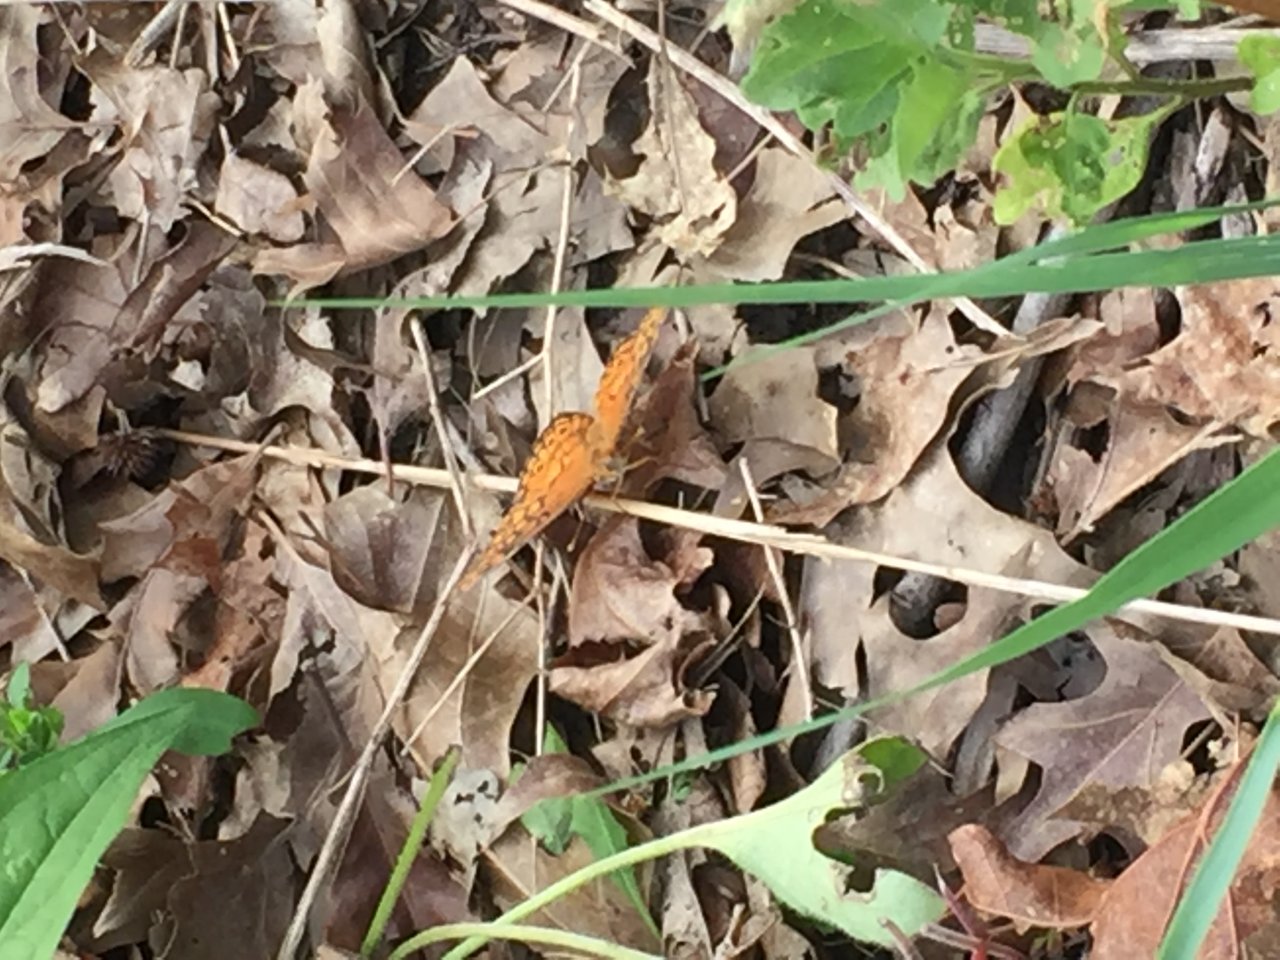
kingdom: Animalia
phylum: Arthropoda
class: Insecta
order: Lepidoptera
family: Nymphalidae
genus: Euptoieta
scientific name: Euptoieta claudia
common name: Variegated Fritillary
